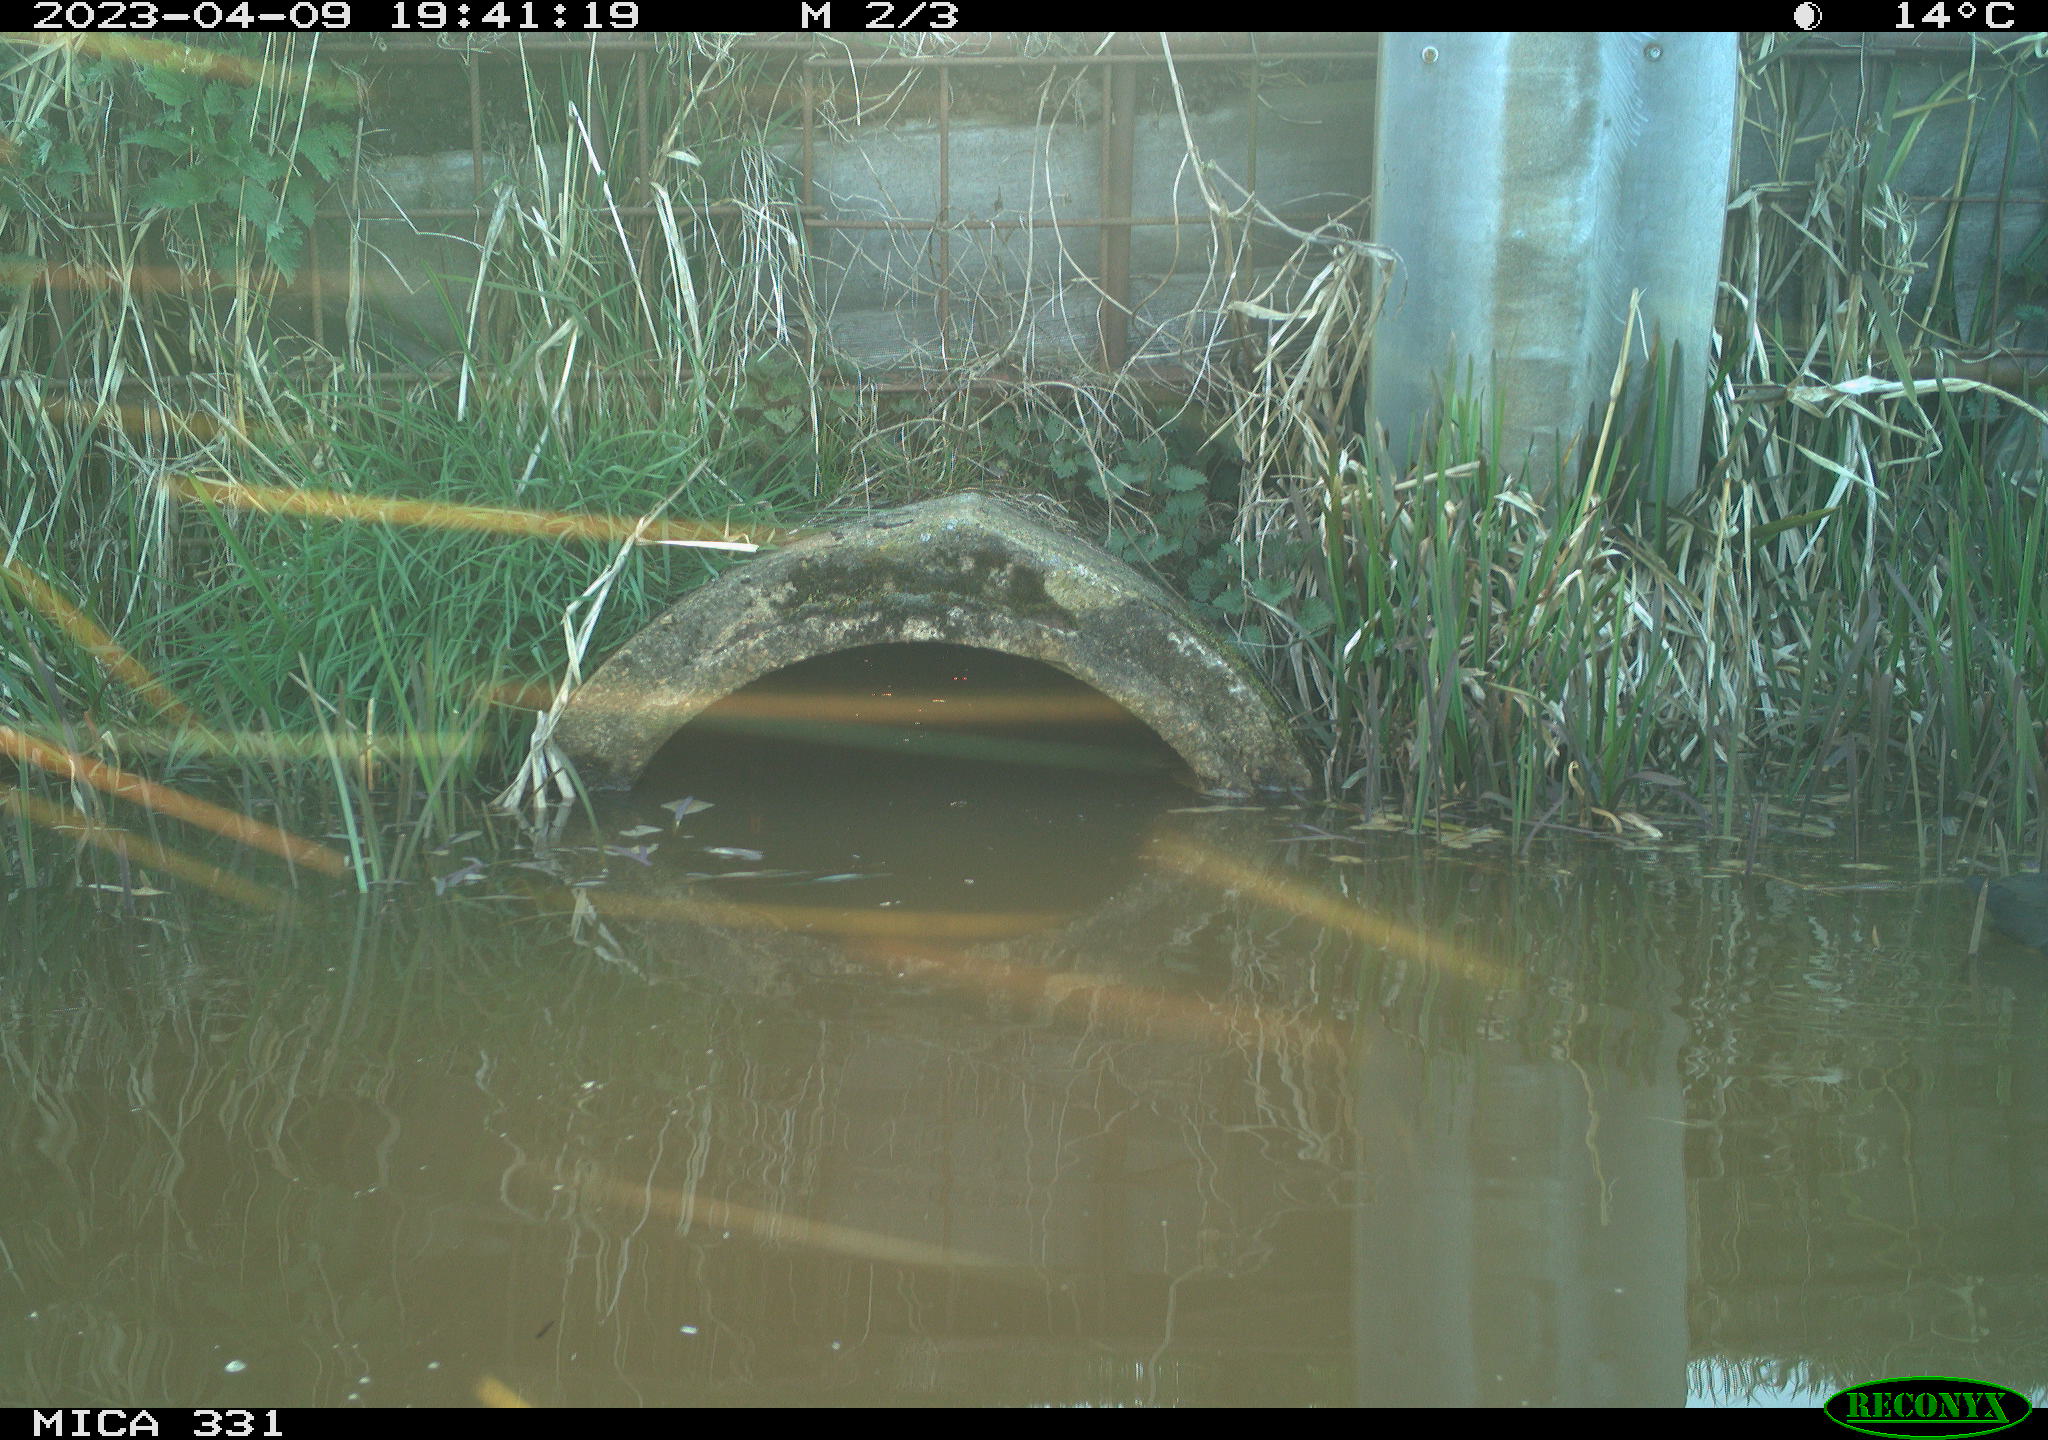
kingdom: Animalia
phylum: Chordata
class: Aves
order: Gruiformes
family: Rallidae
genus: Fulica
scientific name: Fulica atra
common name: Eurasian coot
